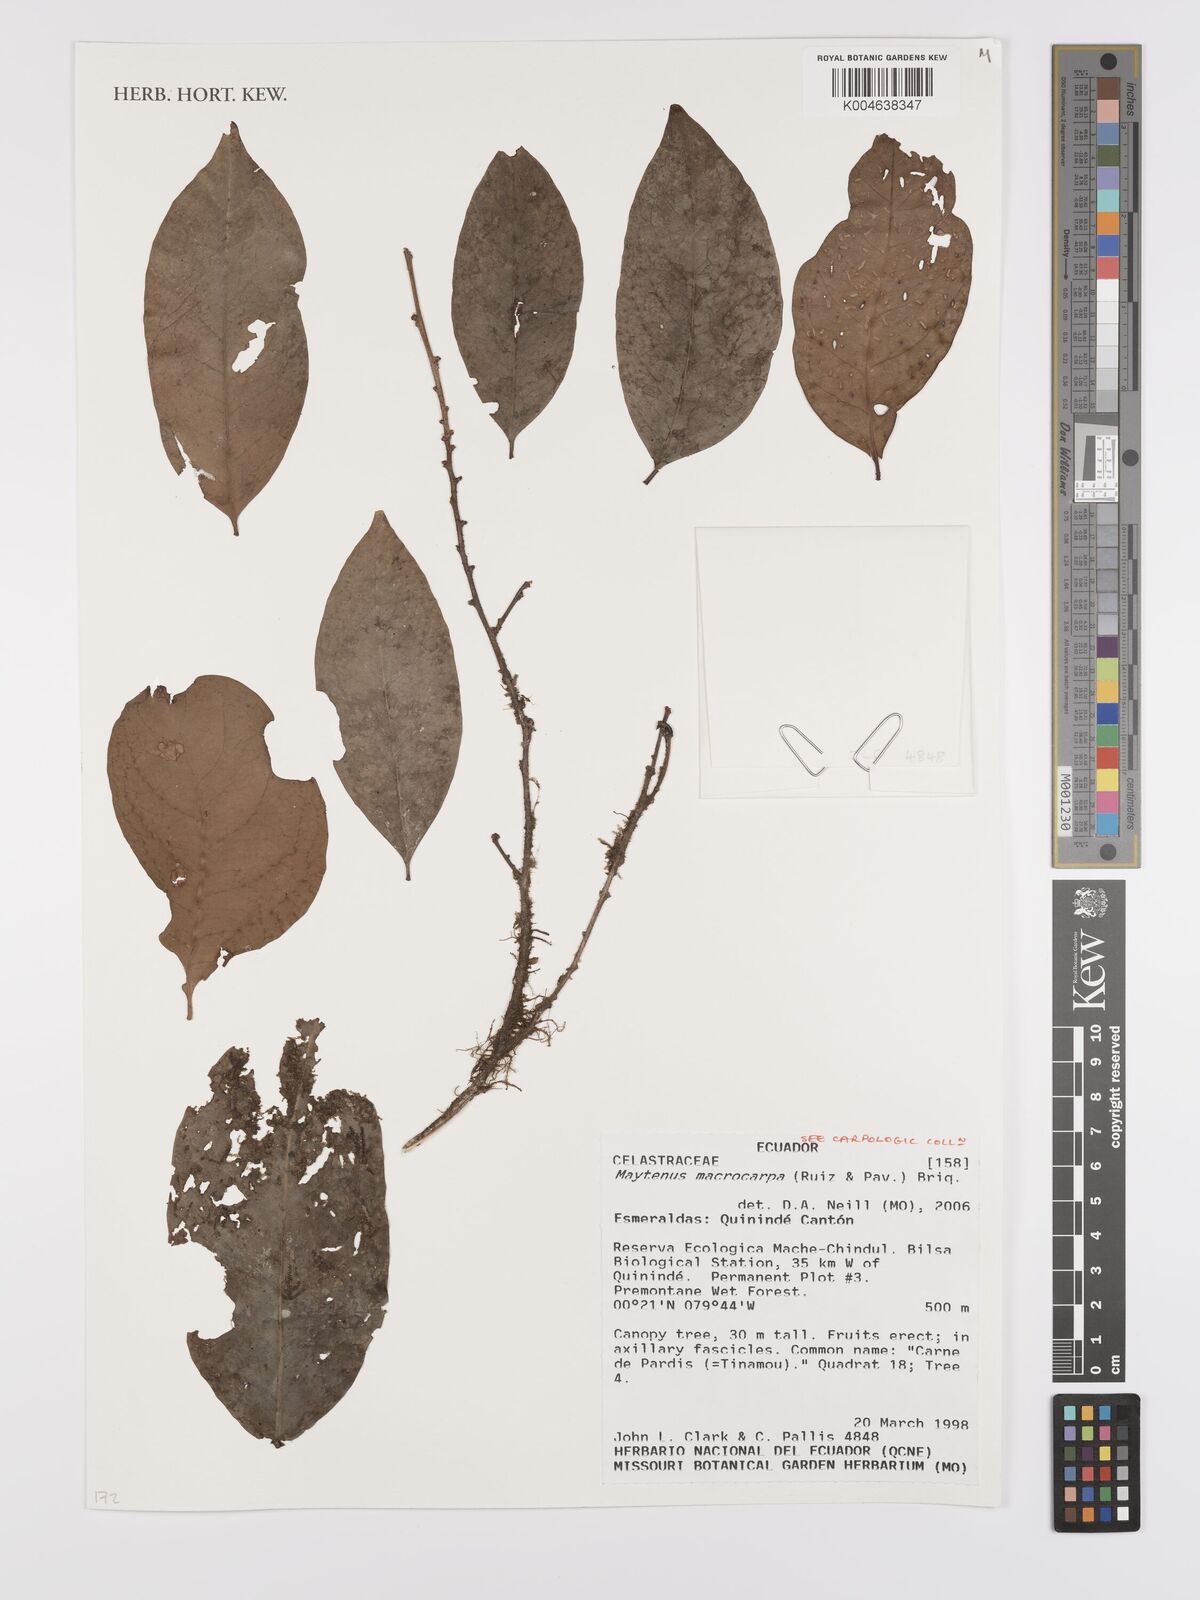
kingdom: Plantae
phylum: Tracheophyta
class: Magnoliopsida
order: Celastrales
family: Celastraceae
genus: Monteverdia
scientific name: Monteverdia macrocarpa
